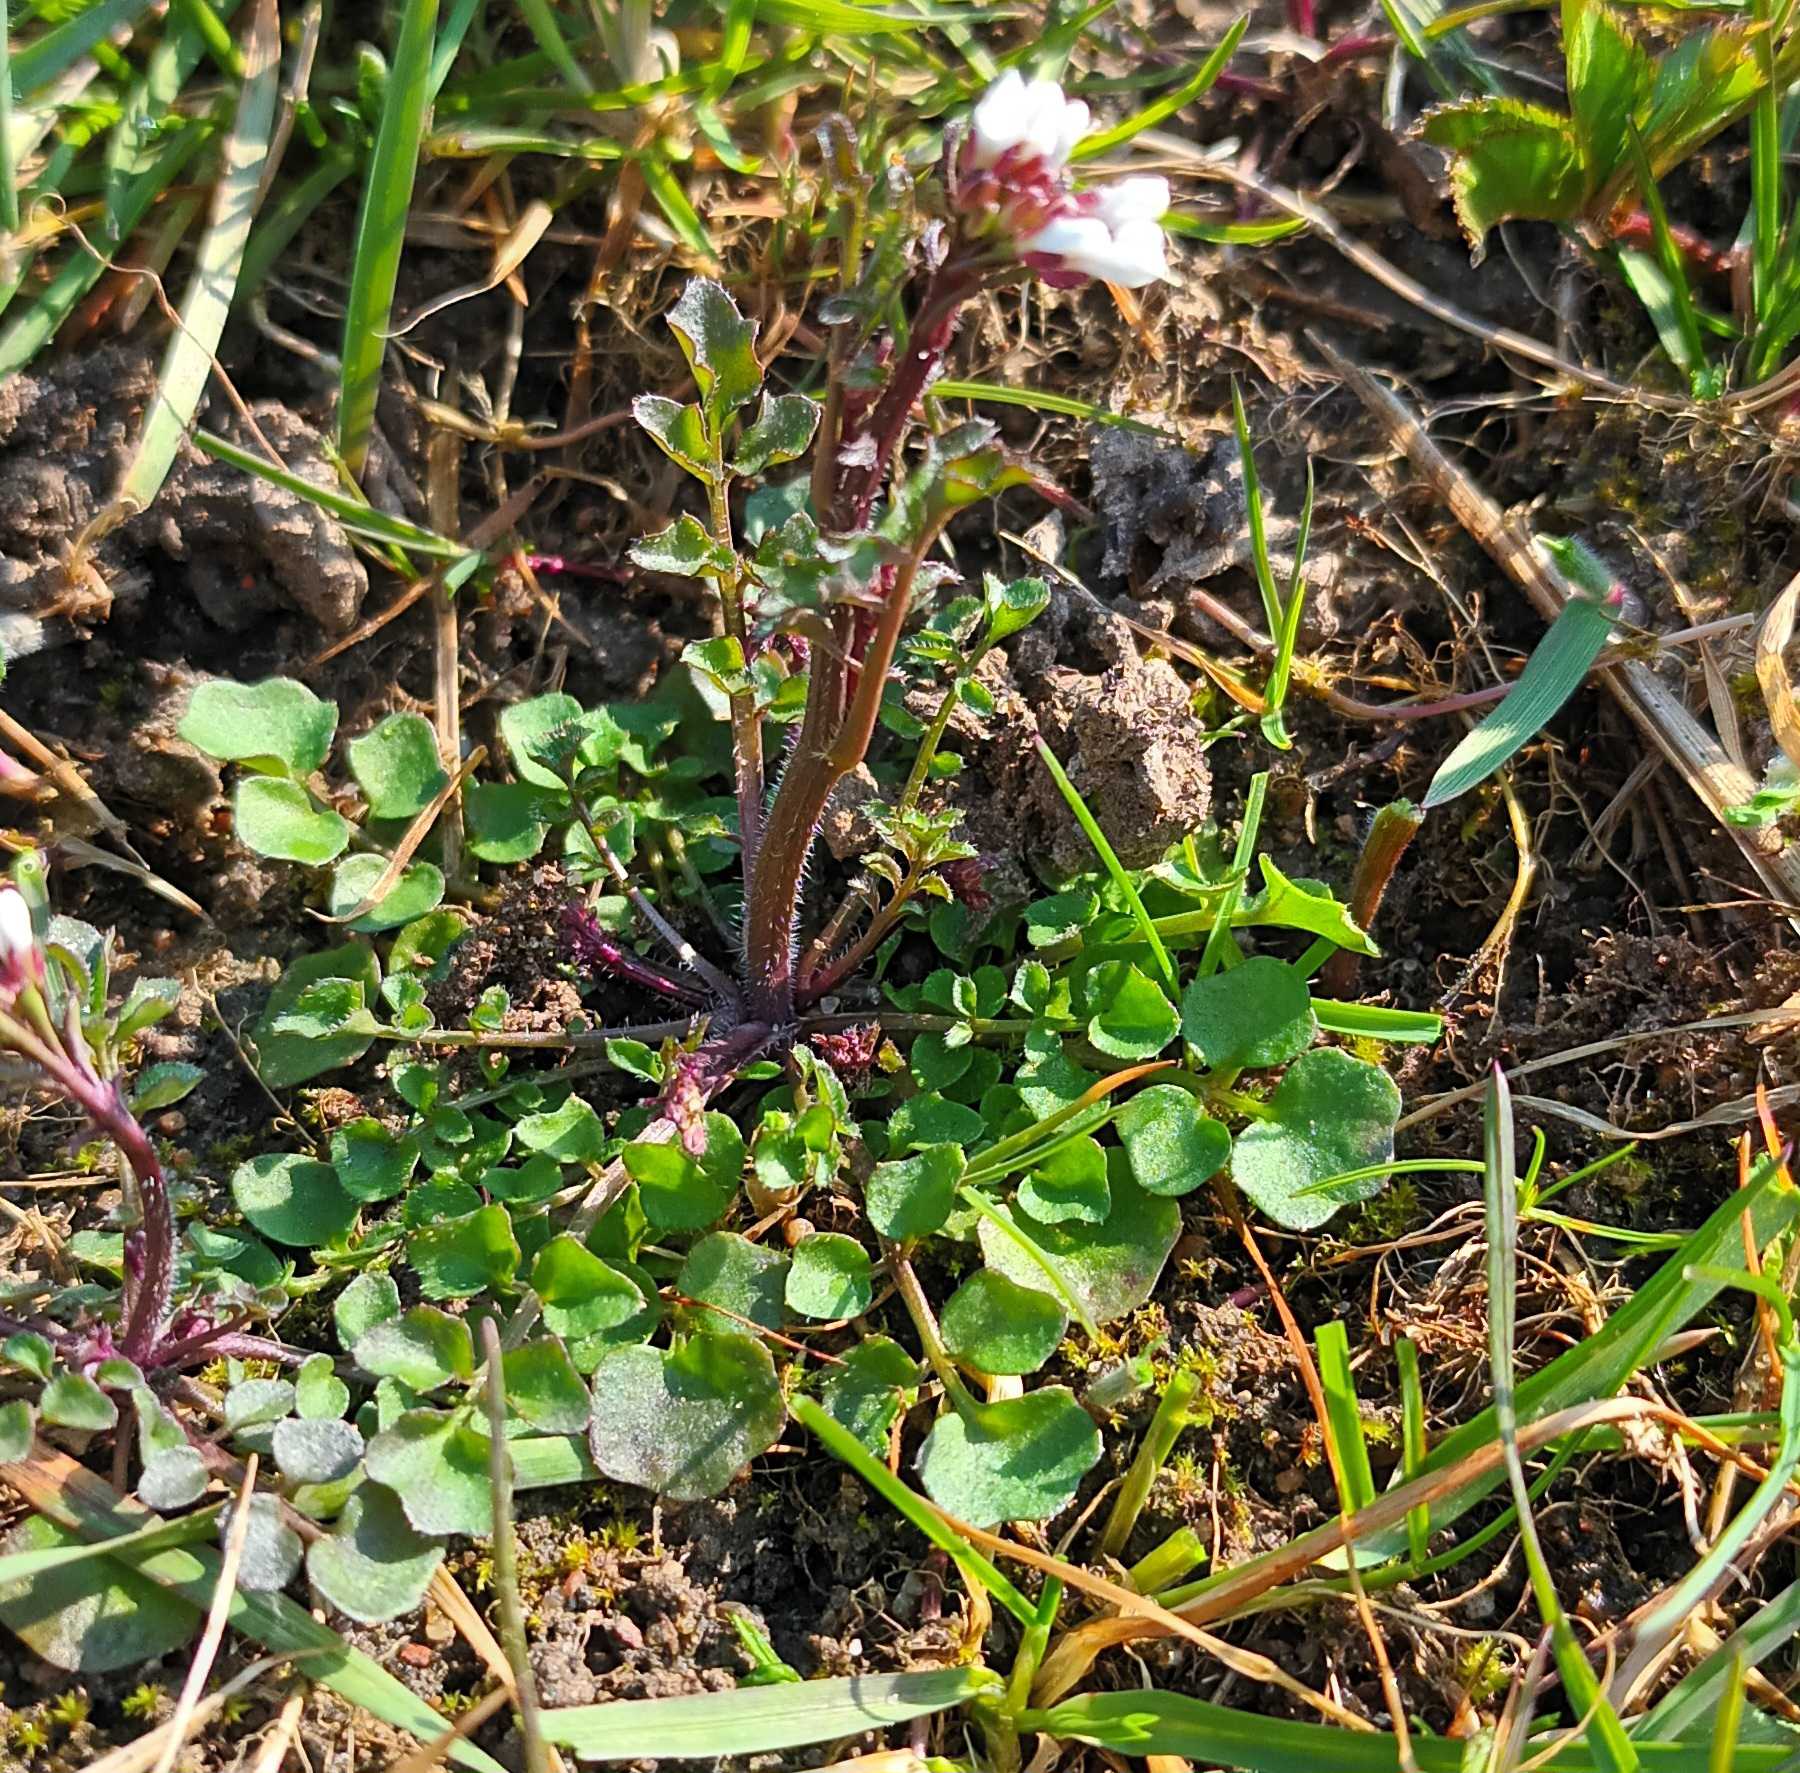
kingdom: Plantae
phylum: Tracheophyta
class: Magnoliopsida
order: Brassicales
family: Brassicaceae
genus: Cardamine
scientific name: Cardamine hirsuta
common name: Roset-springklap
